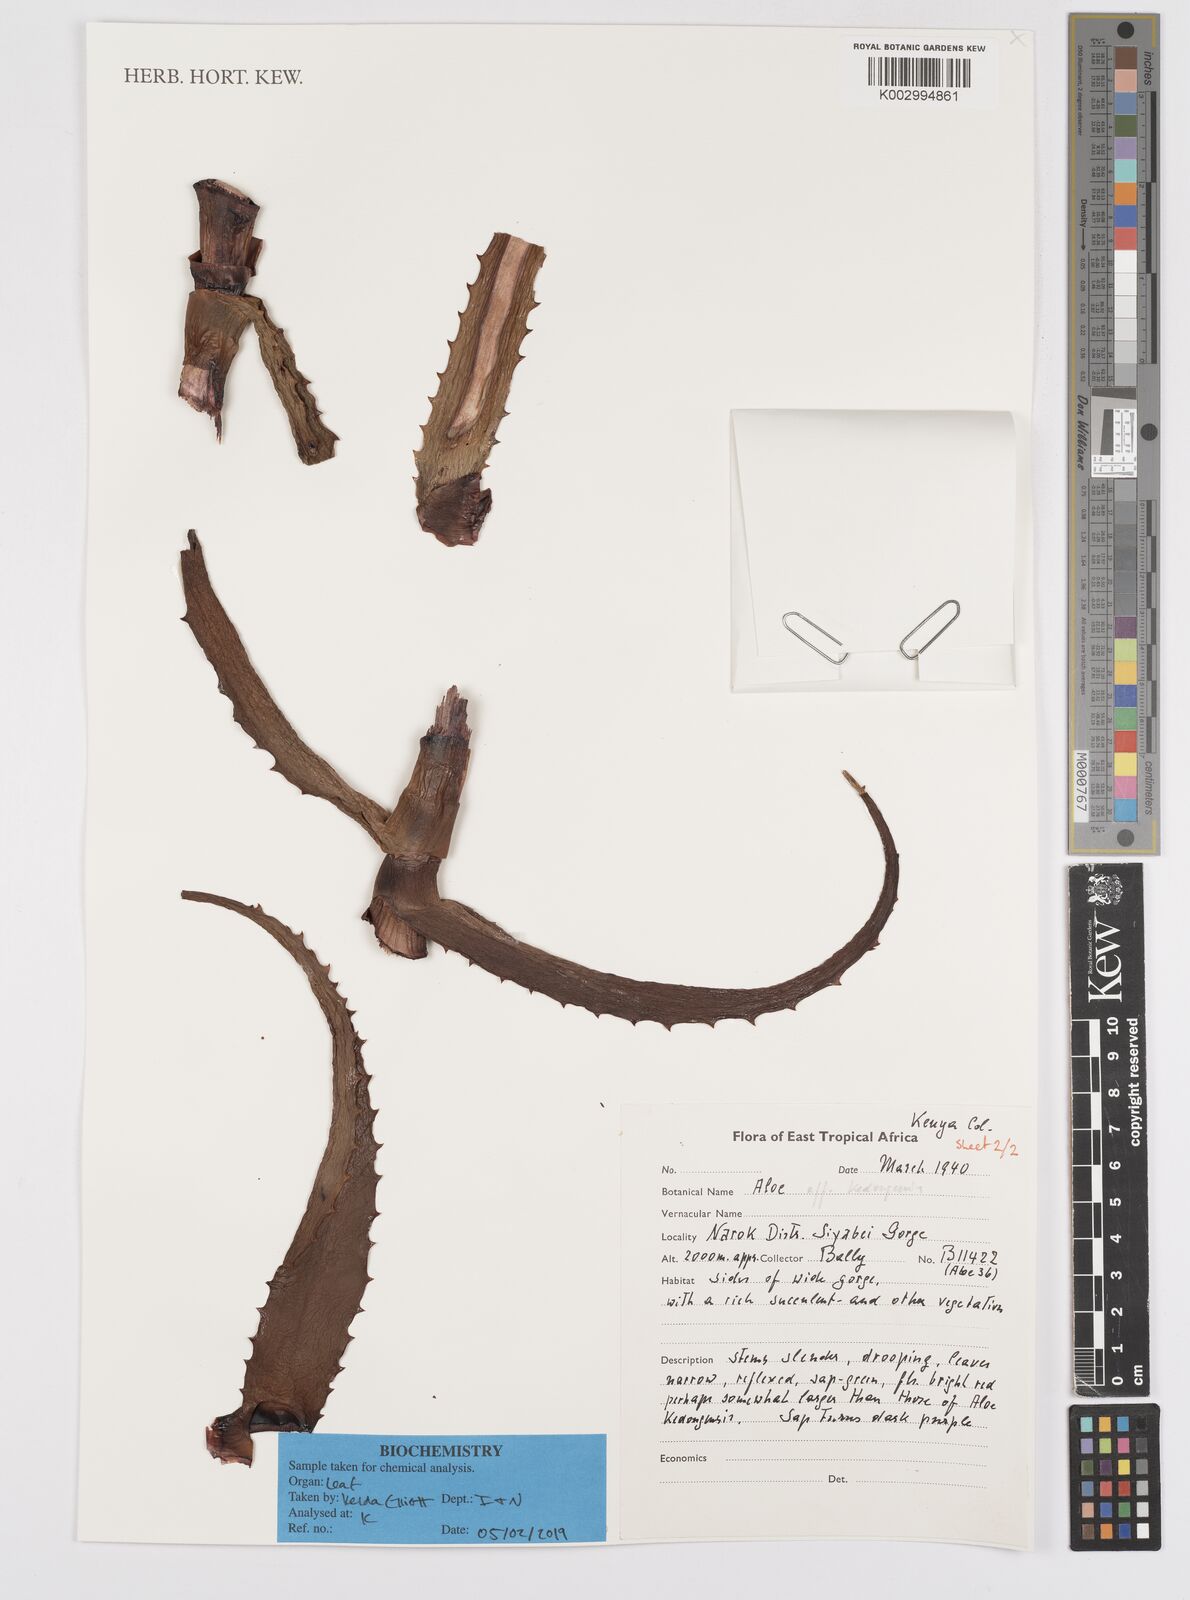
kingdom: Plantae
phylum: Tracheophyta
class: Liliopsida
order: Asparagales
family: Asphodelaceae
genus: Aloe
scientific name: Aloe kedongensis
